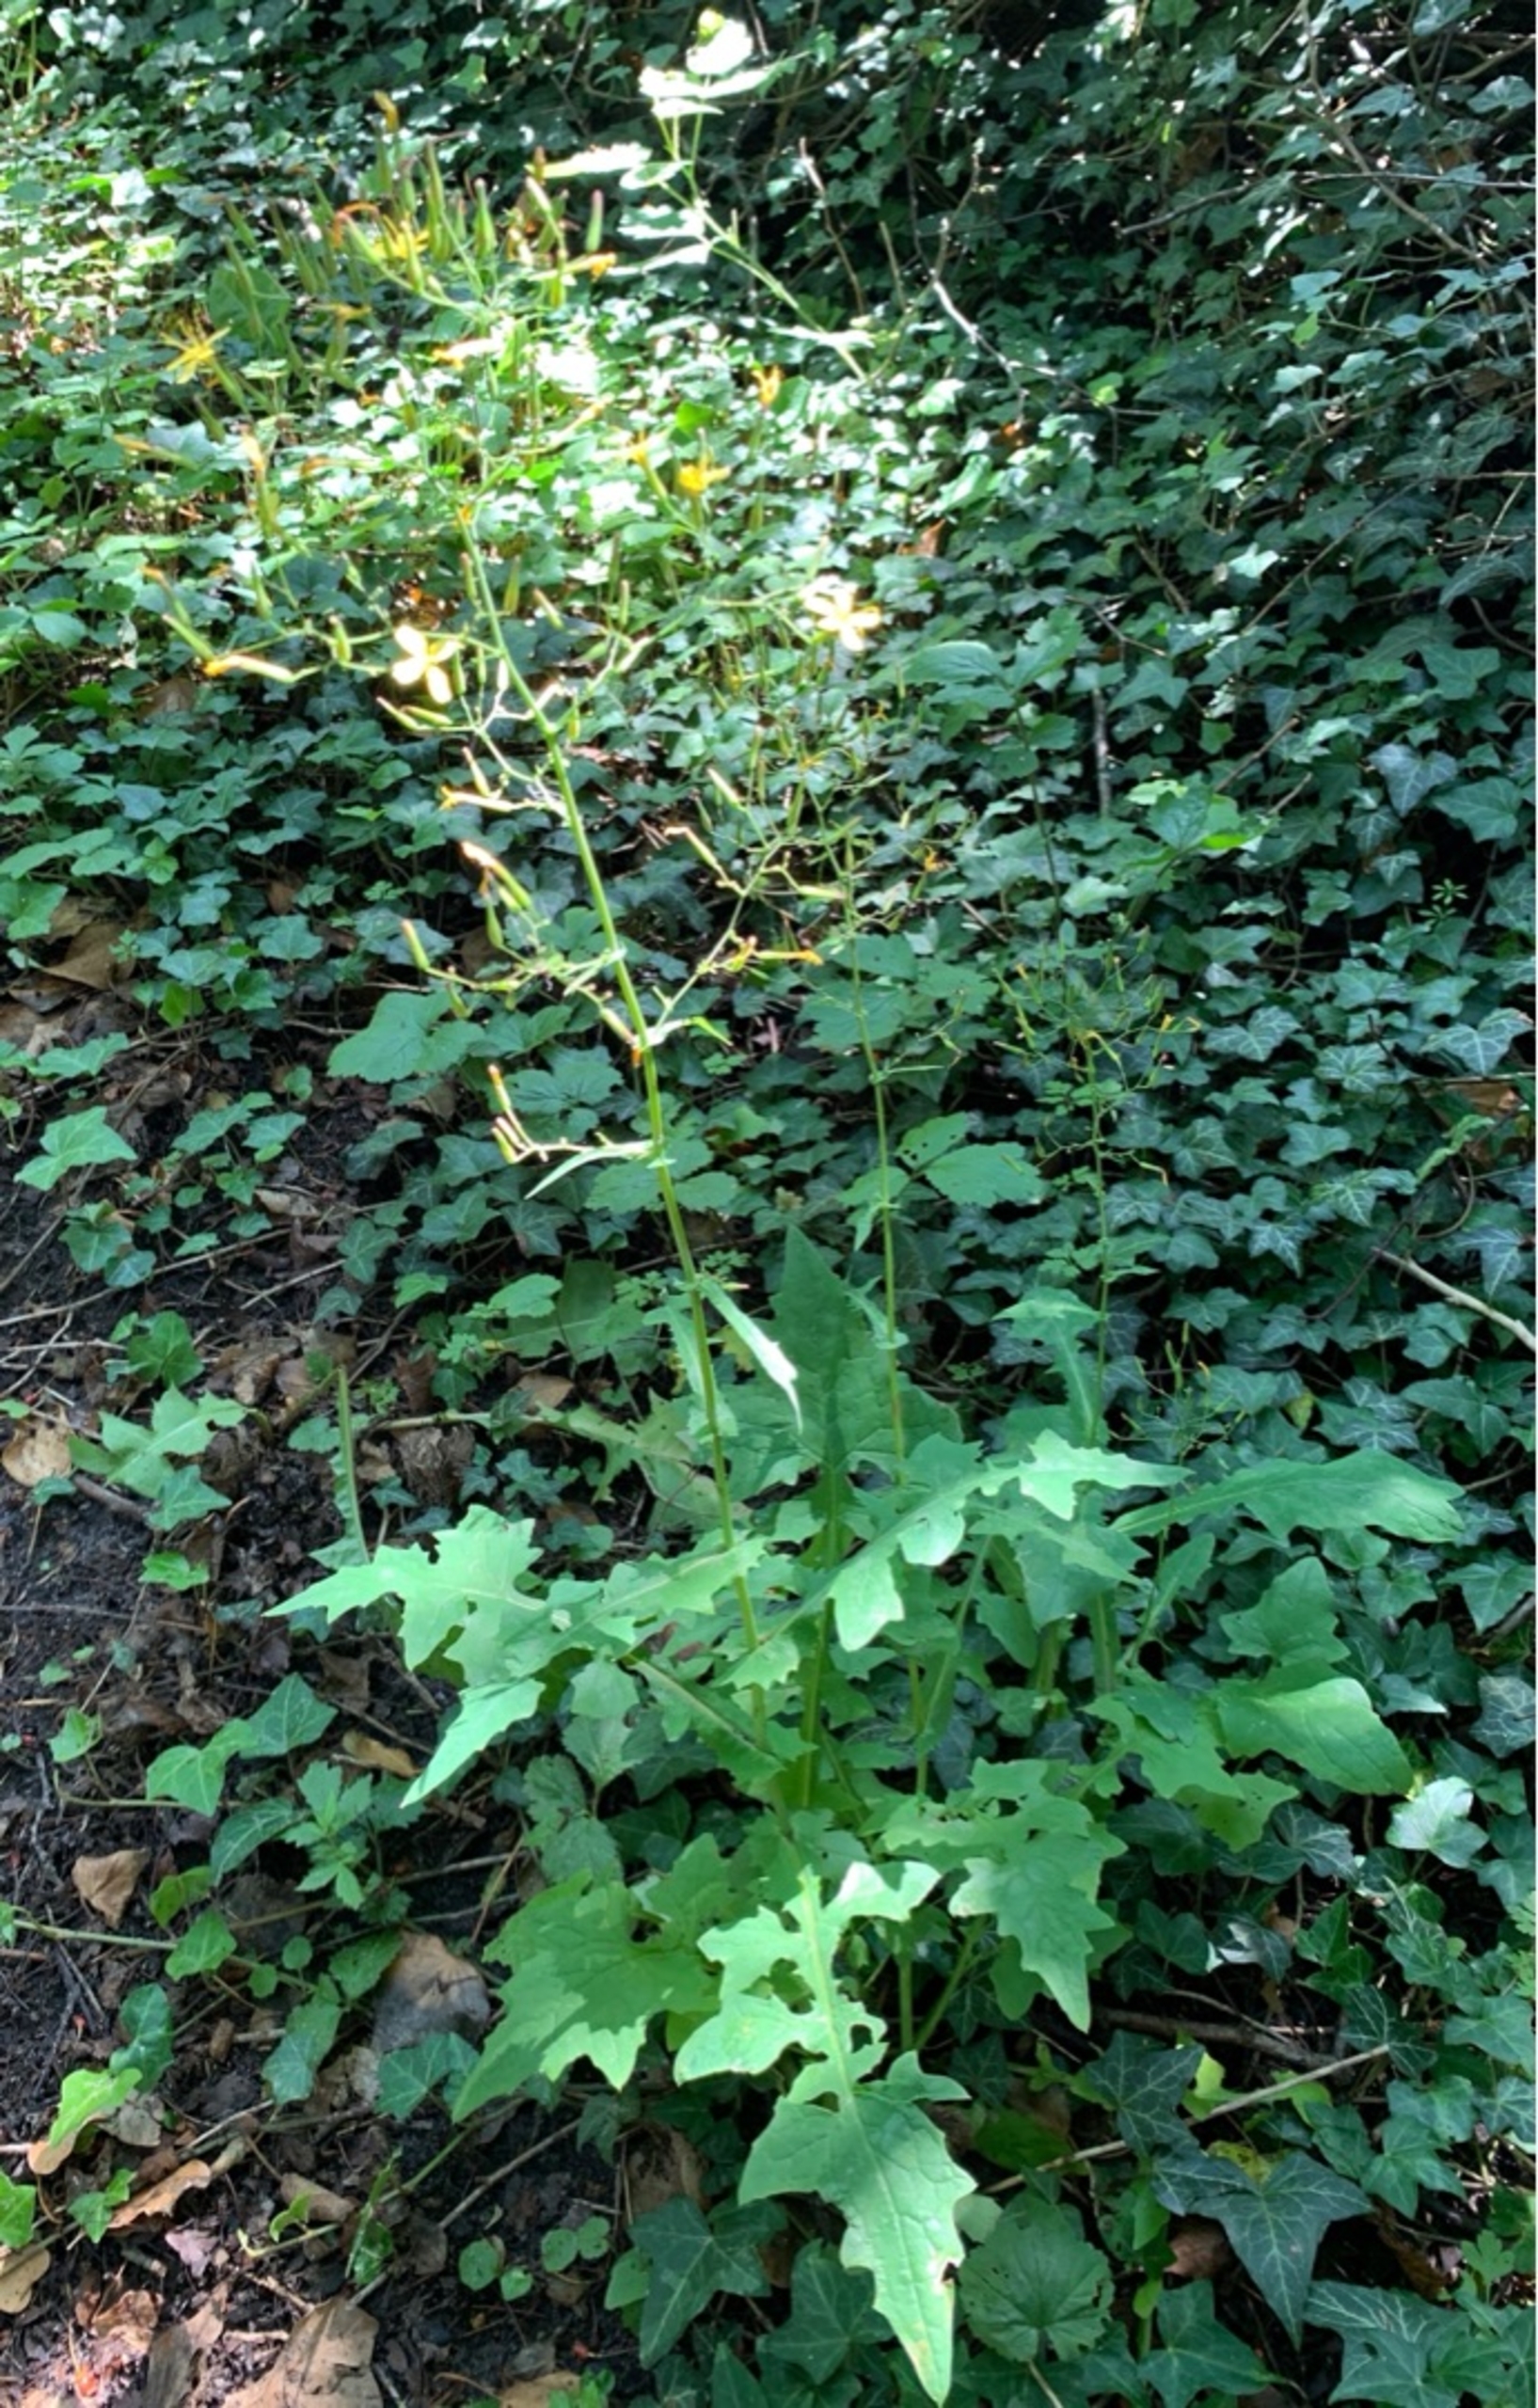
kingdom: Plantae
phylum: Tracheophyta
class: Magnoliopsida
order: Asterales
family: Asteraceae
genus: Mycelis
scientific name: Mycelis muralis
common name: Skov-salat
